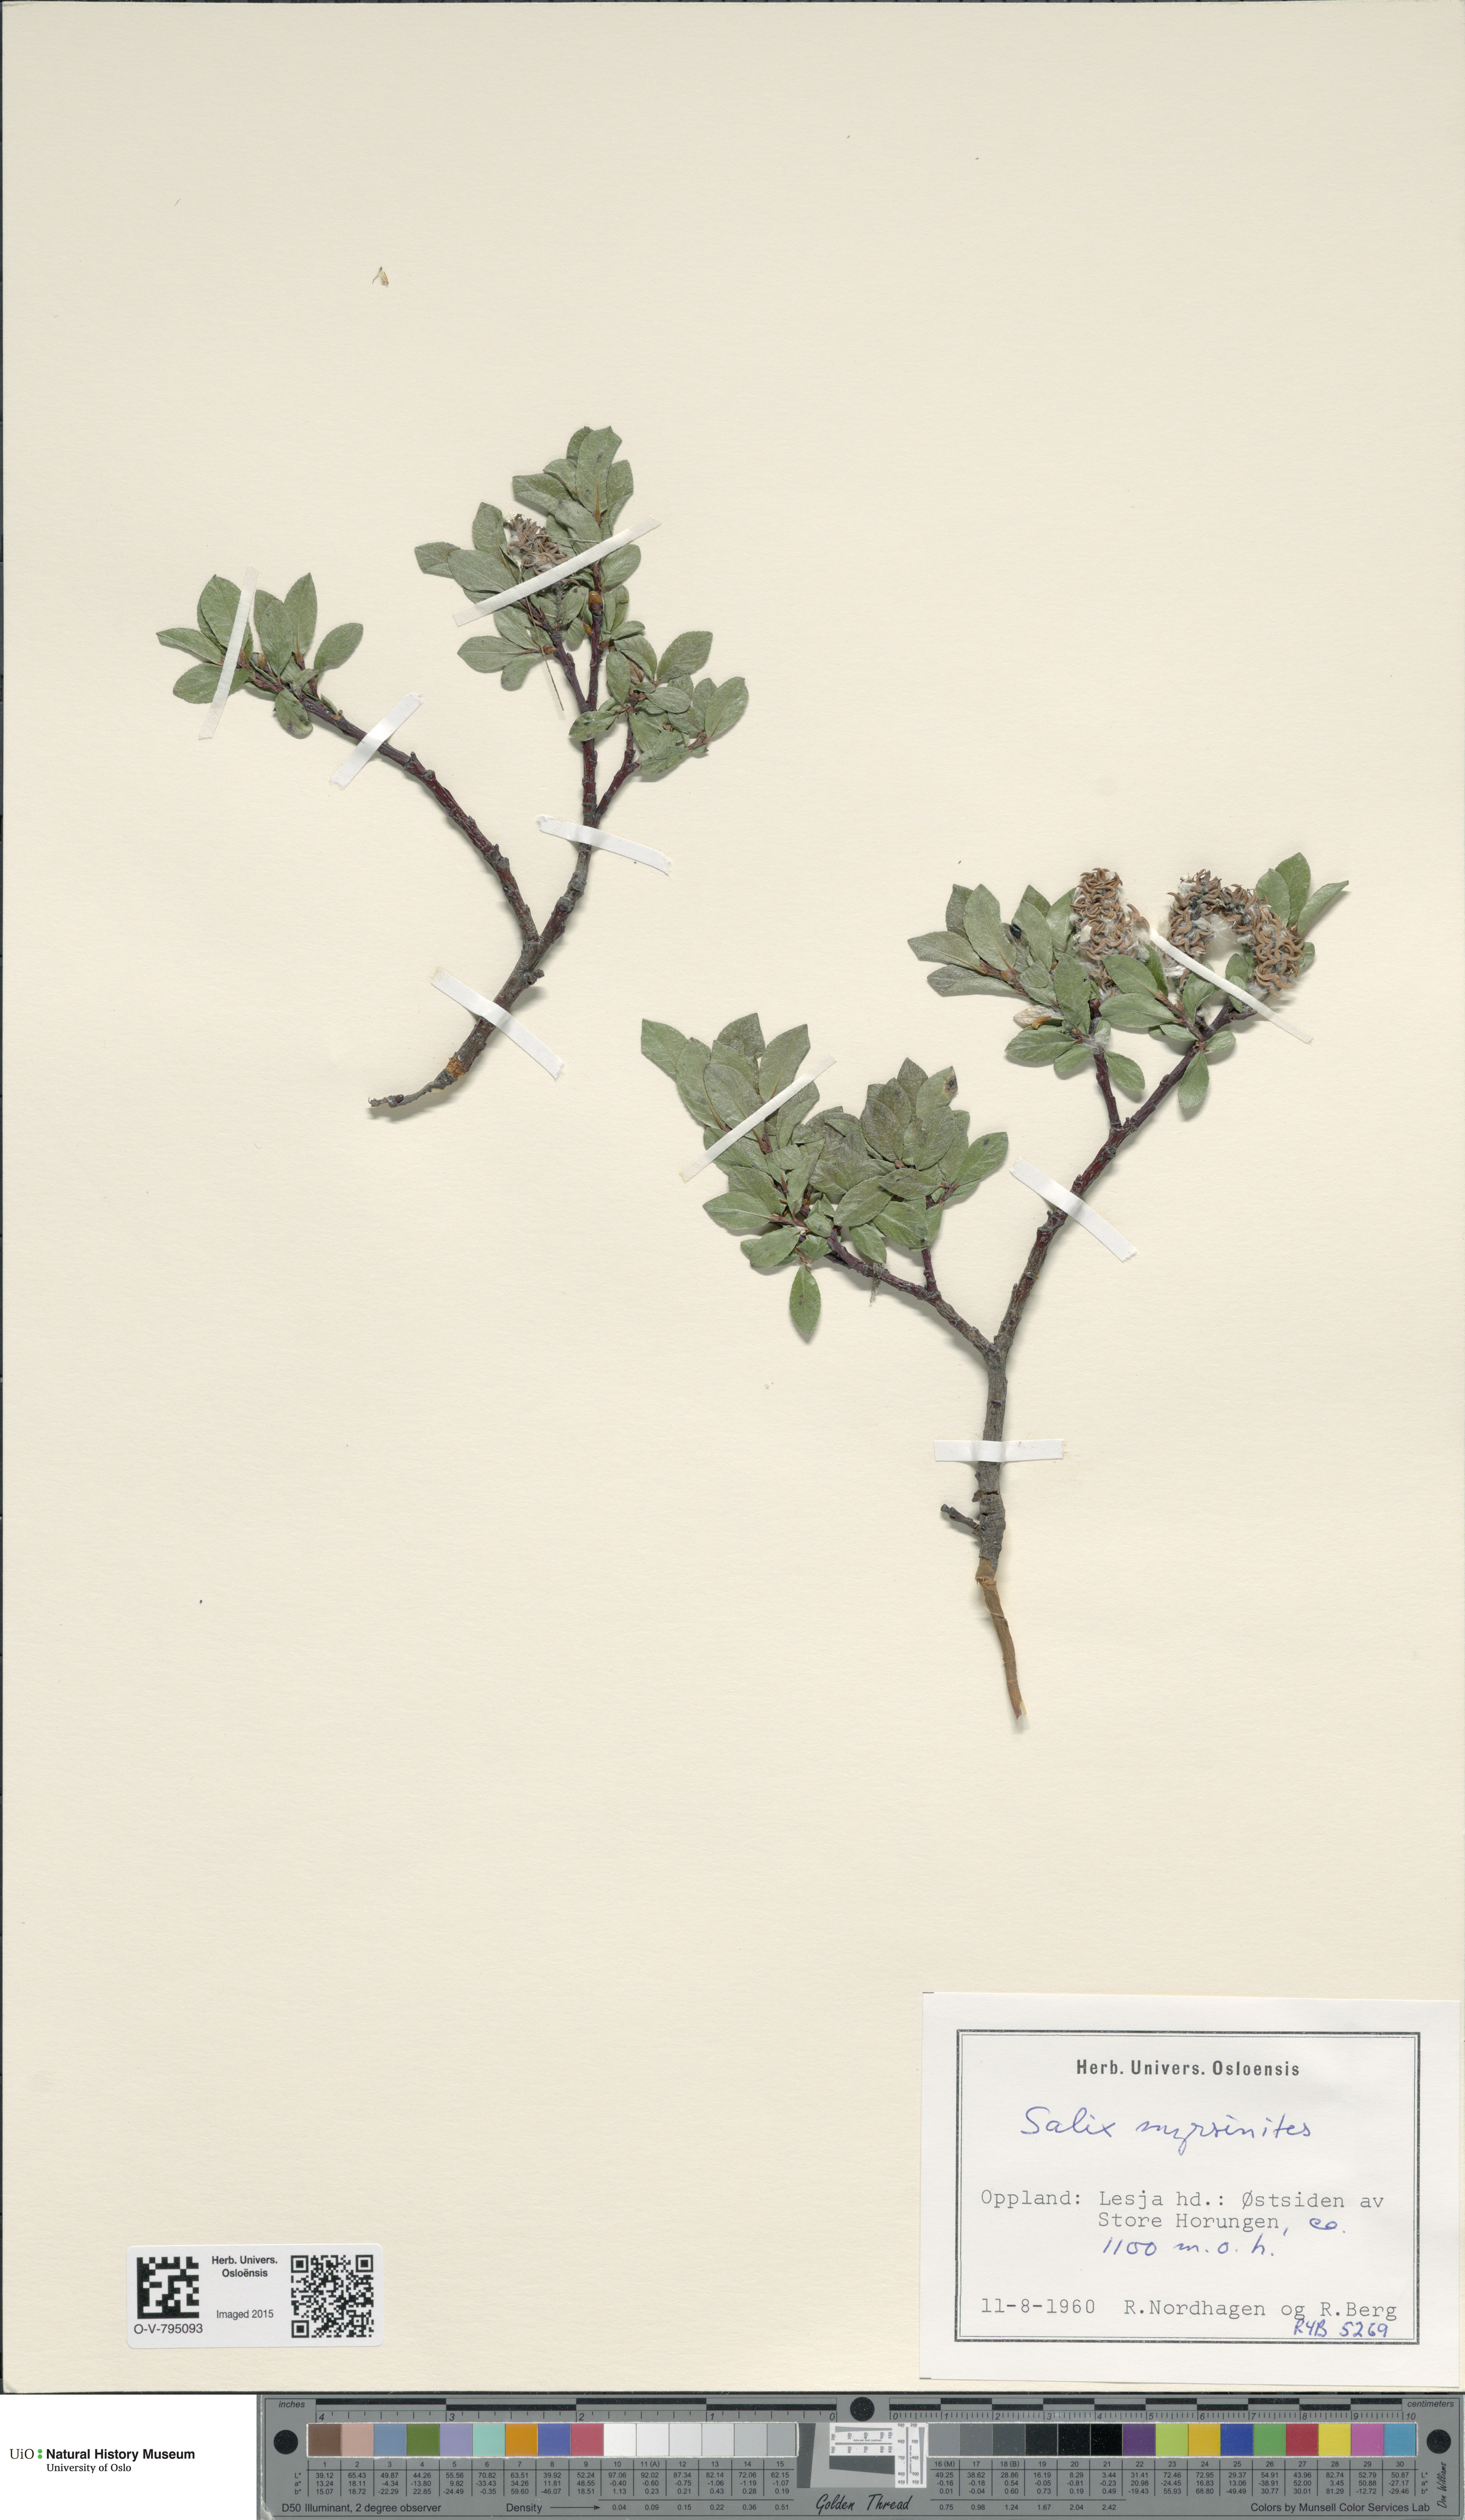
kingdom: Plantae
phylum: Tracheophyta
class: Magnoliopsida
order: Malpighiales
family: Salicaceae
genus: Salix
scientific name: Salix myrsinites
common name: Myrtle willow
